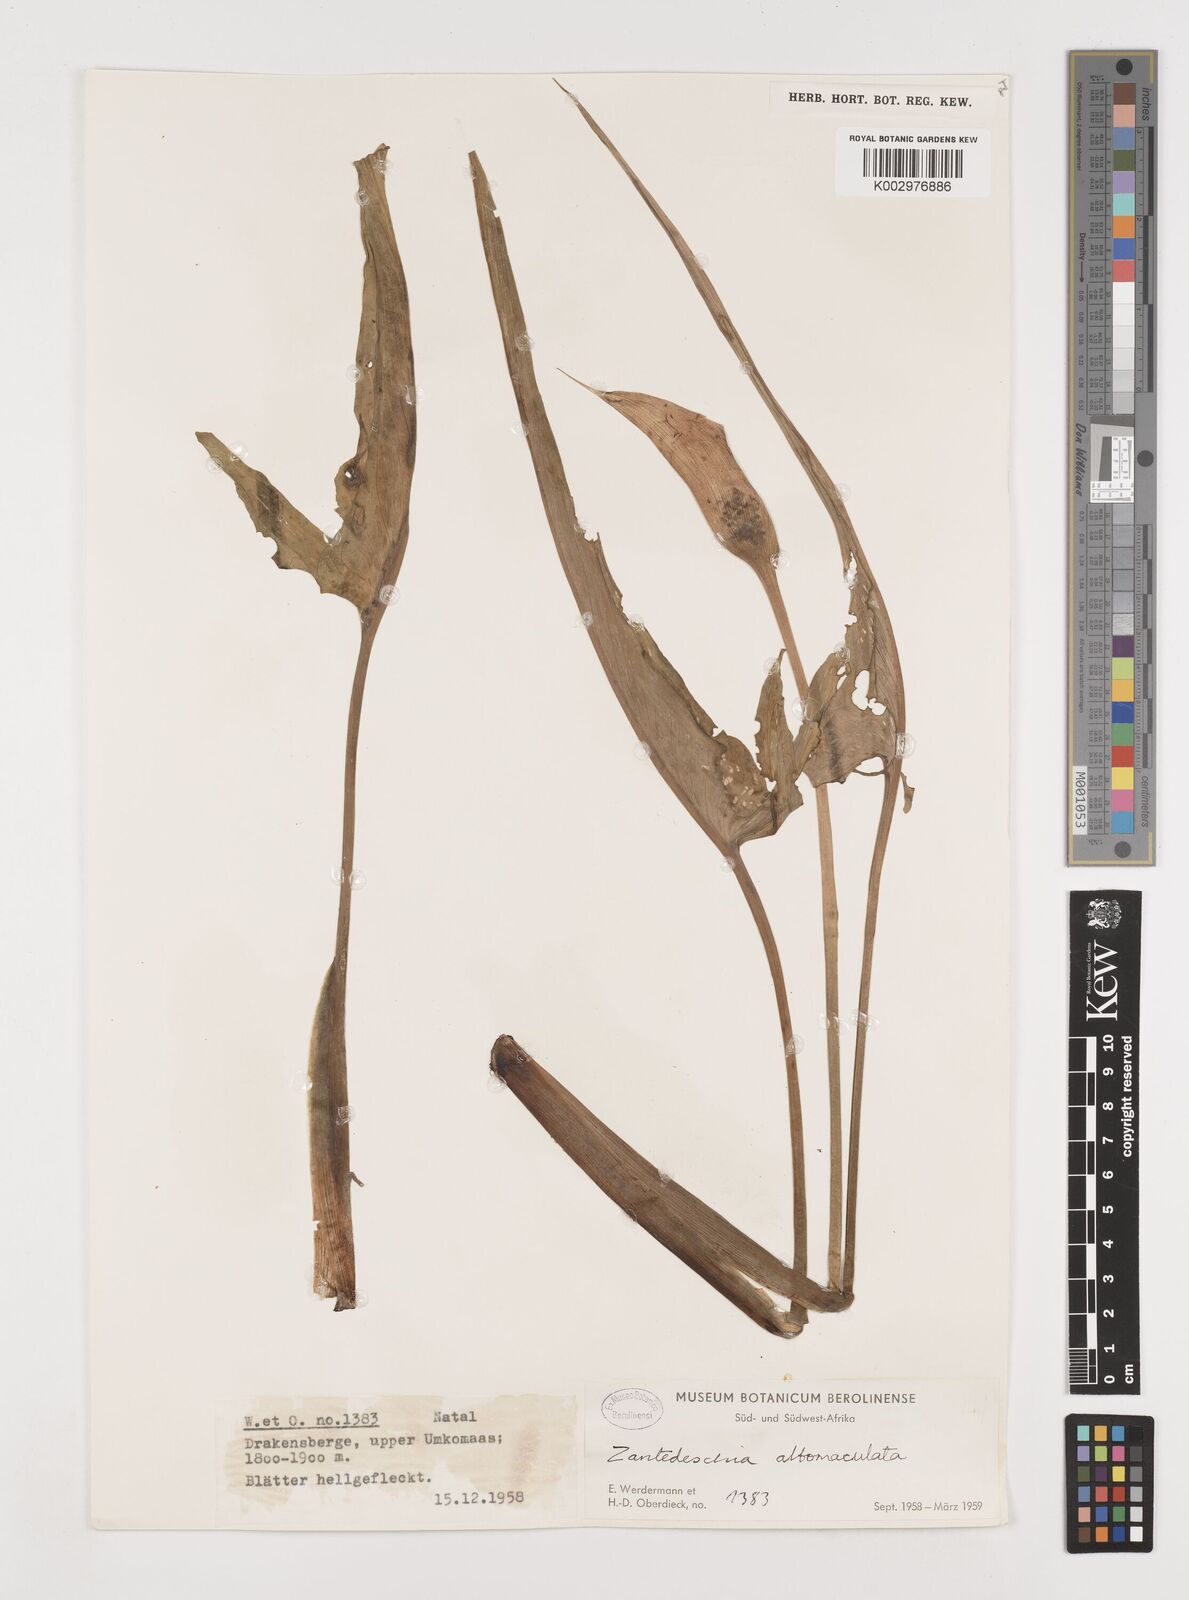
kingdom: Plantae
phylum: Tracheophyta
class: Liliopsida
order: Alismatales
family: Araceae
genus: Zantedeschia
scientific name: Zantedeschia albomaculata
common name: Spotted calla lily
